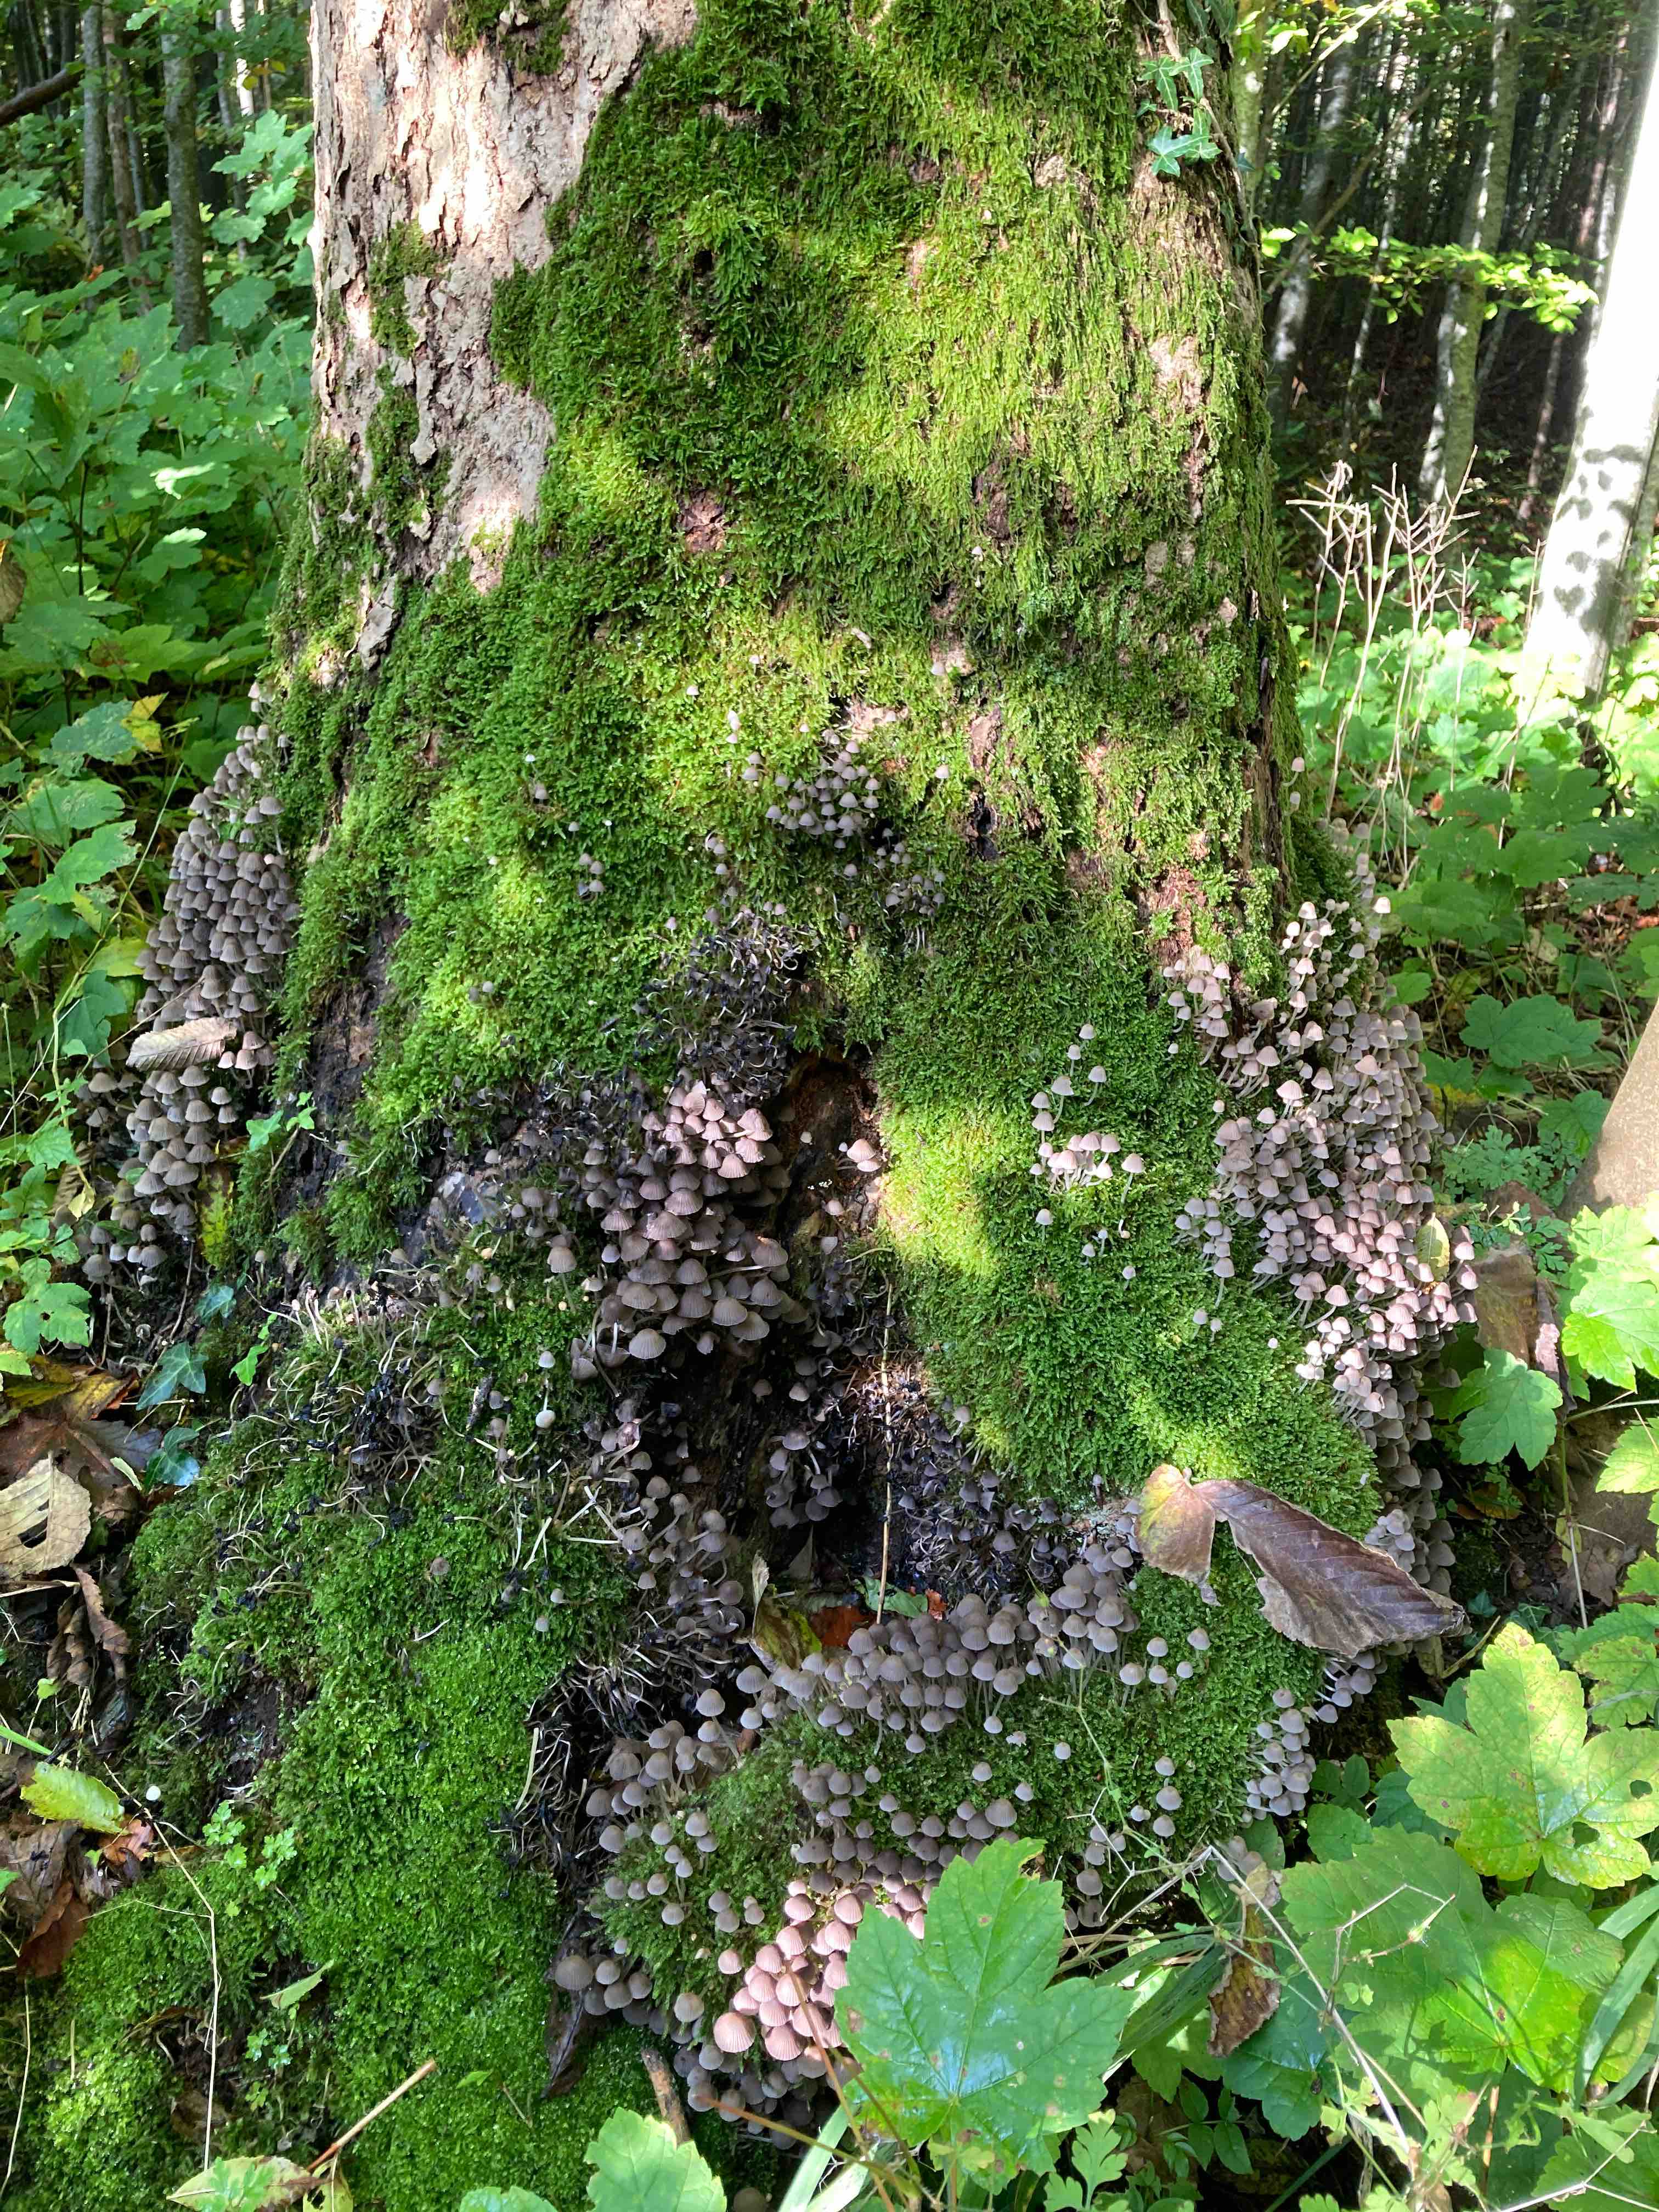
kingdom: Fungi
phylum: Basidiomycota
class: Agaricomycetes
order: Agaricales
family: Psathyrellaceae
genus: Coprinellus
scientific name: Coprinellus disseminatus
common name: bredsået blækhat
